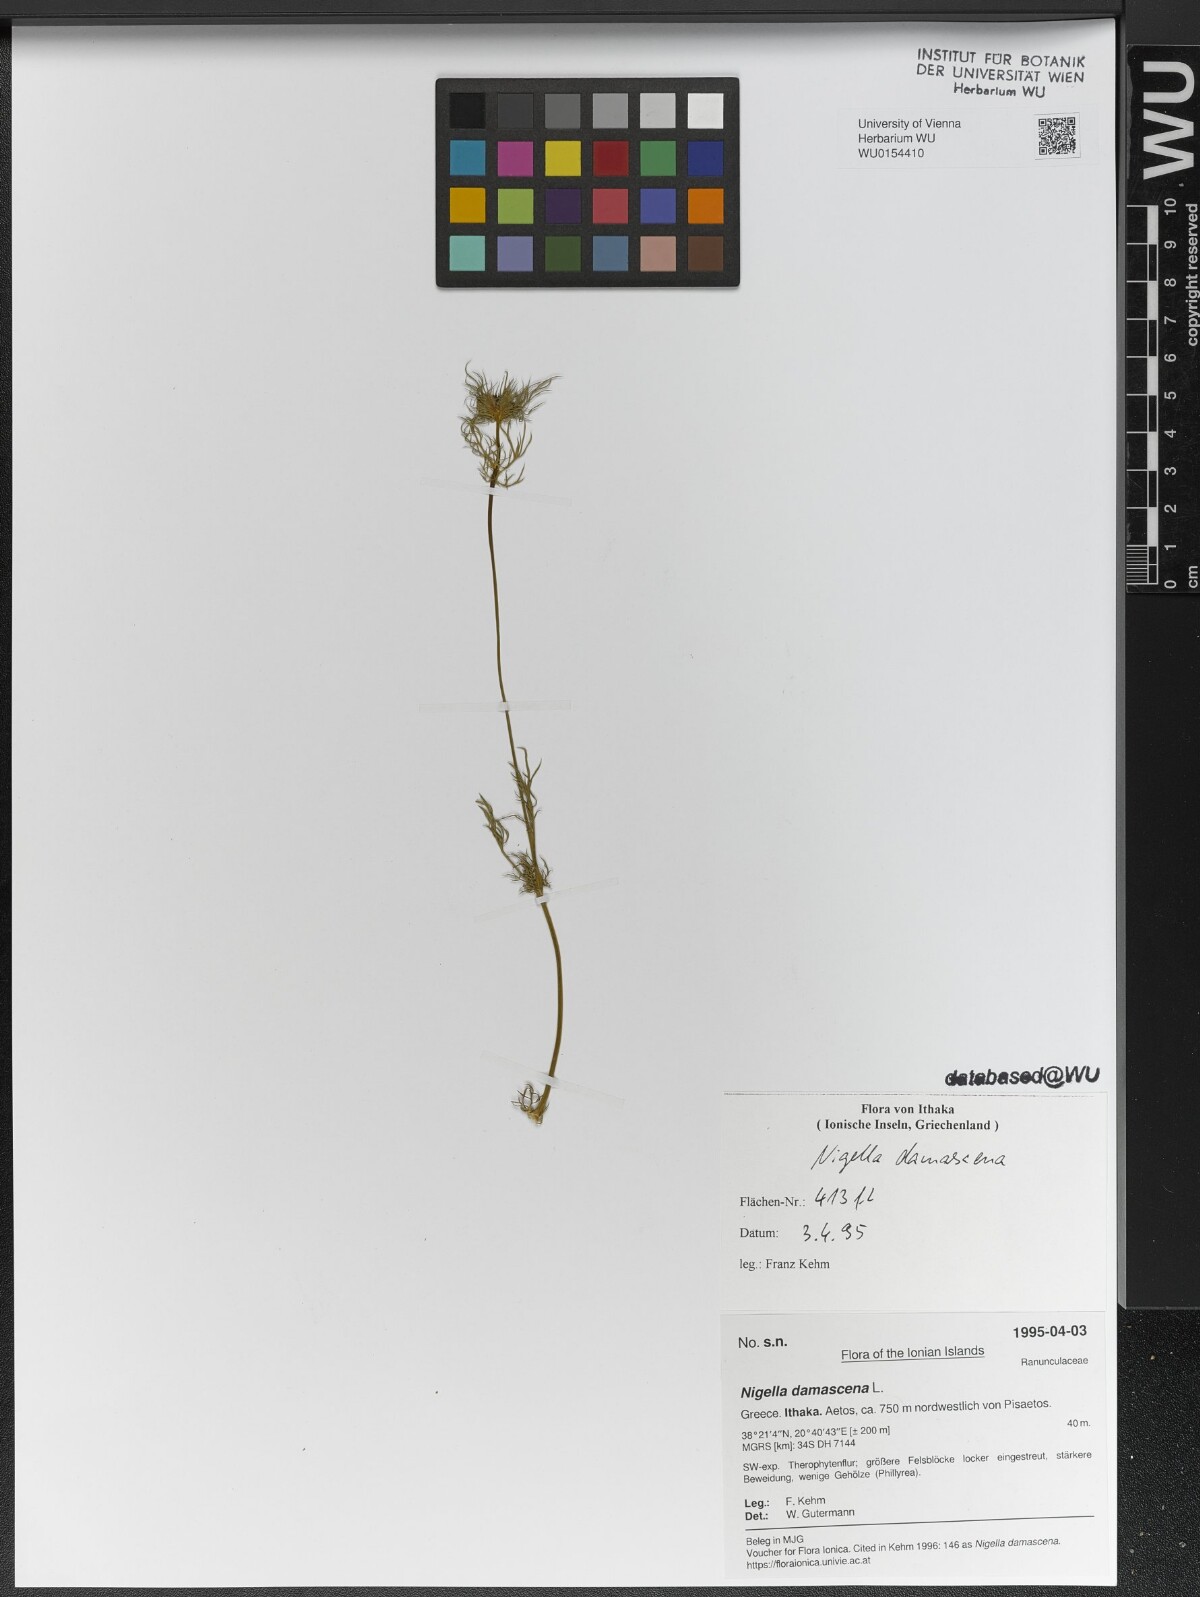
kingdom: Plantae
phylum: Tracheophyta
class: Magnoliopsida
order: Ranunculales
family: Ranunculaceae
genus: Nigella
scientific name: Nigella damascena
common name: Love-in-a-mist
